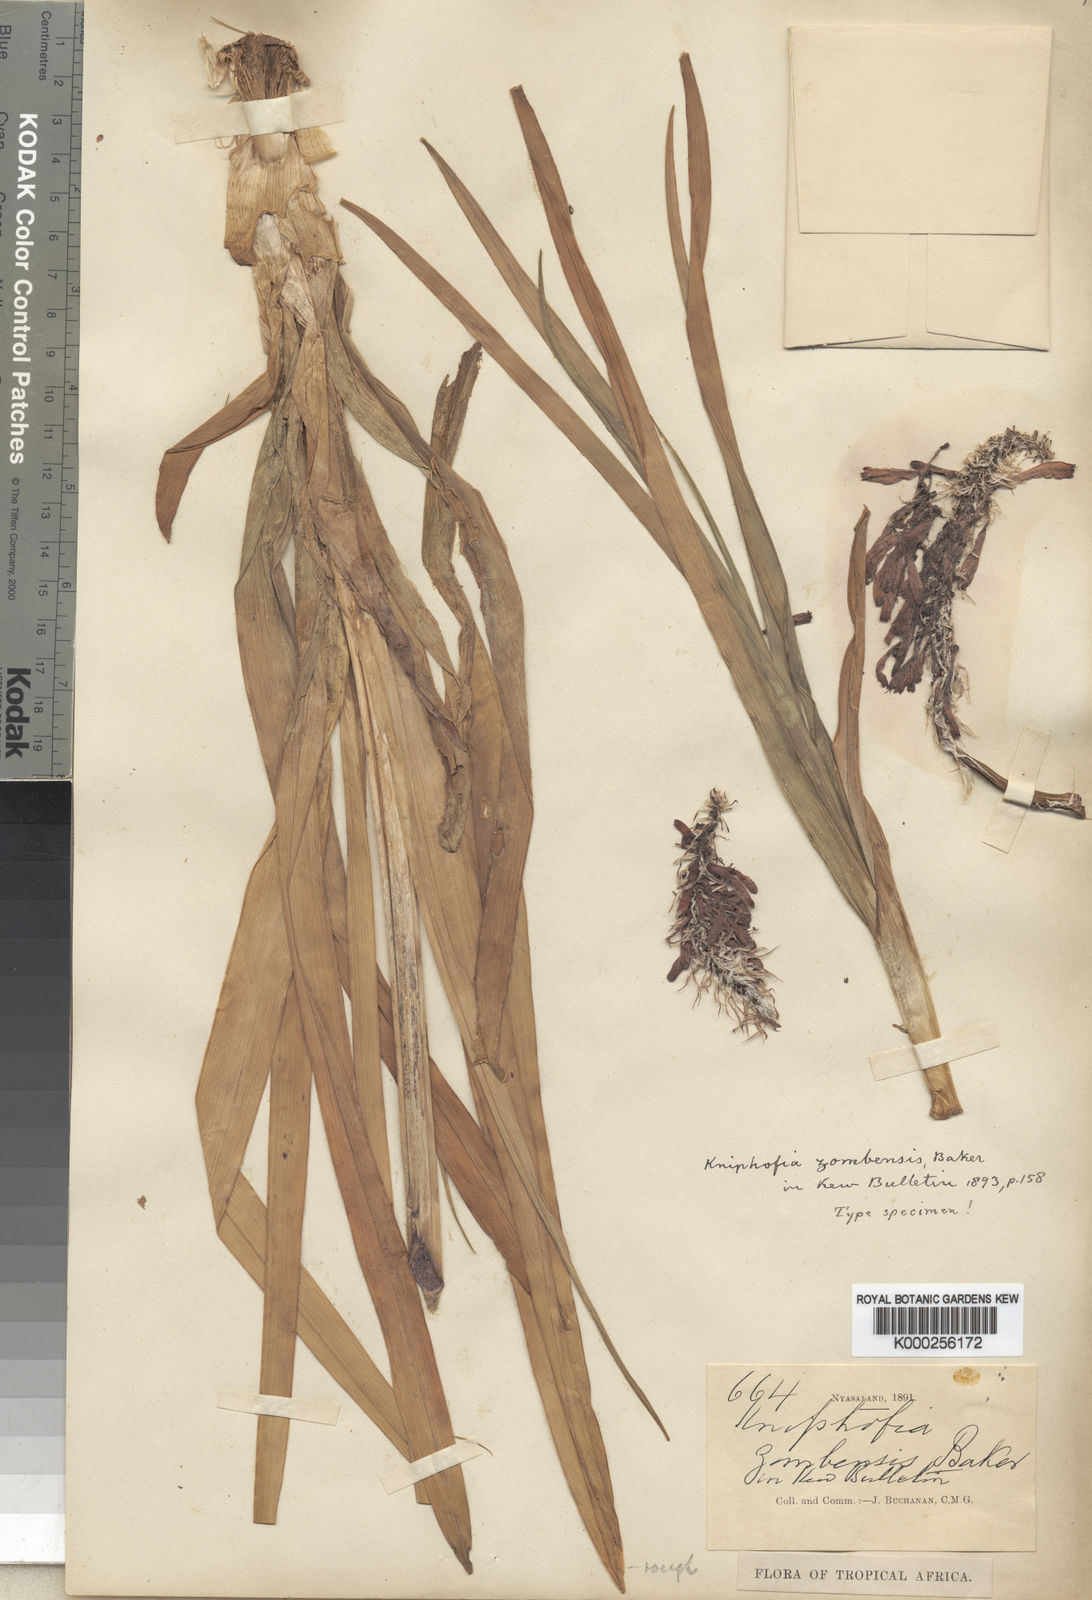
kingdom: Plantae
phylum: Tracheophyta
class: Liliopsida
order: Asparagales
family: Asphodelaceae
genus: Kniphofia
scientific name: Kniphofia grantii
